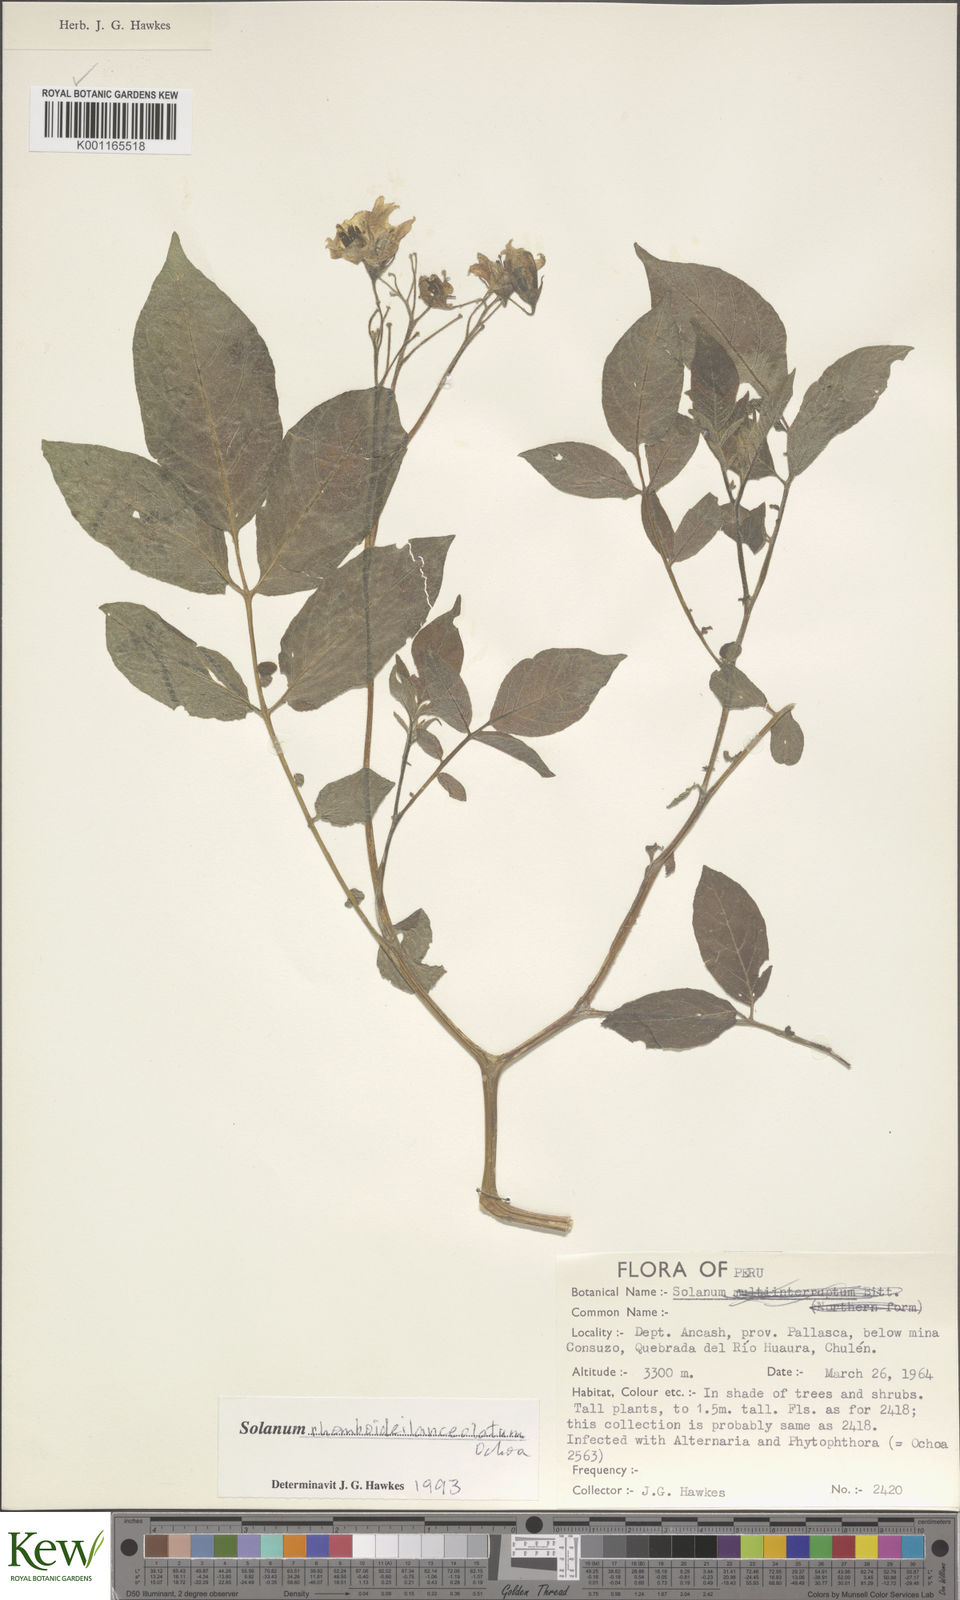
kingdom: Plantae
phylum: Tracheophyta
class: Magnoliopsida
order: Solanales
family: Solanaceae
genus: Solanum
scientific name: Solanum rhomboideilanceolatum
